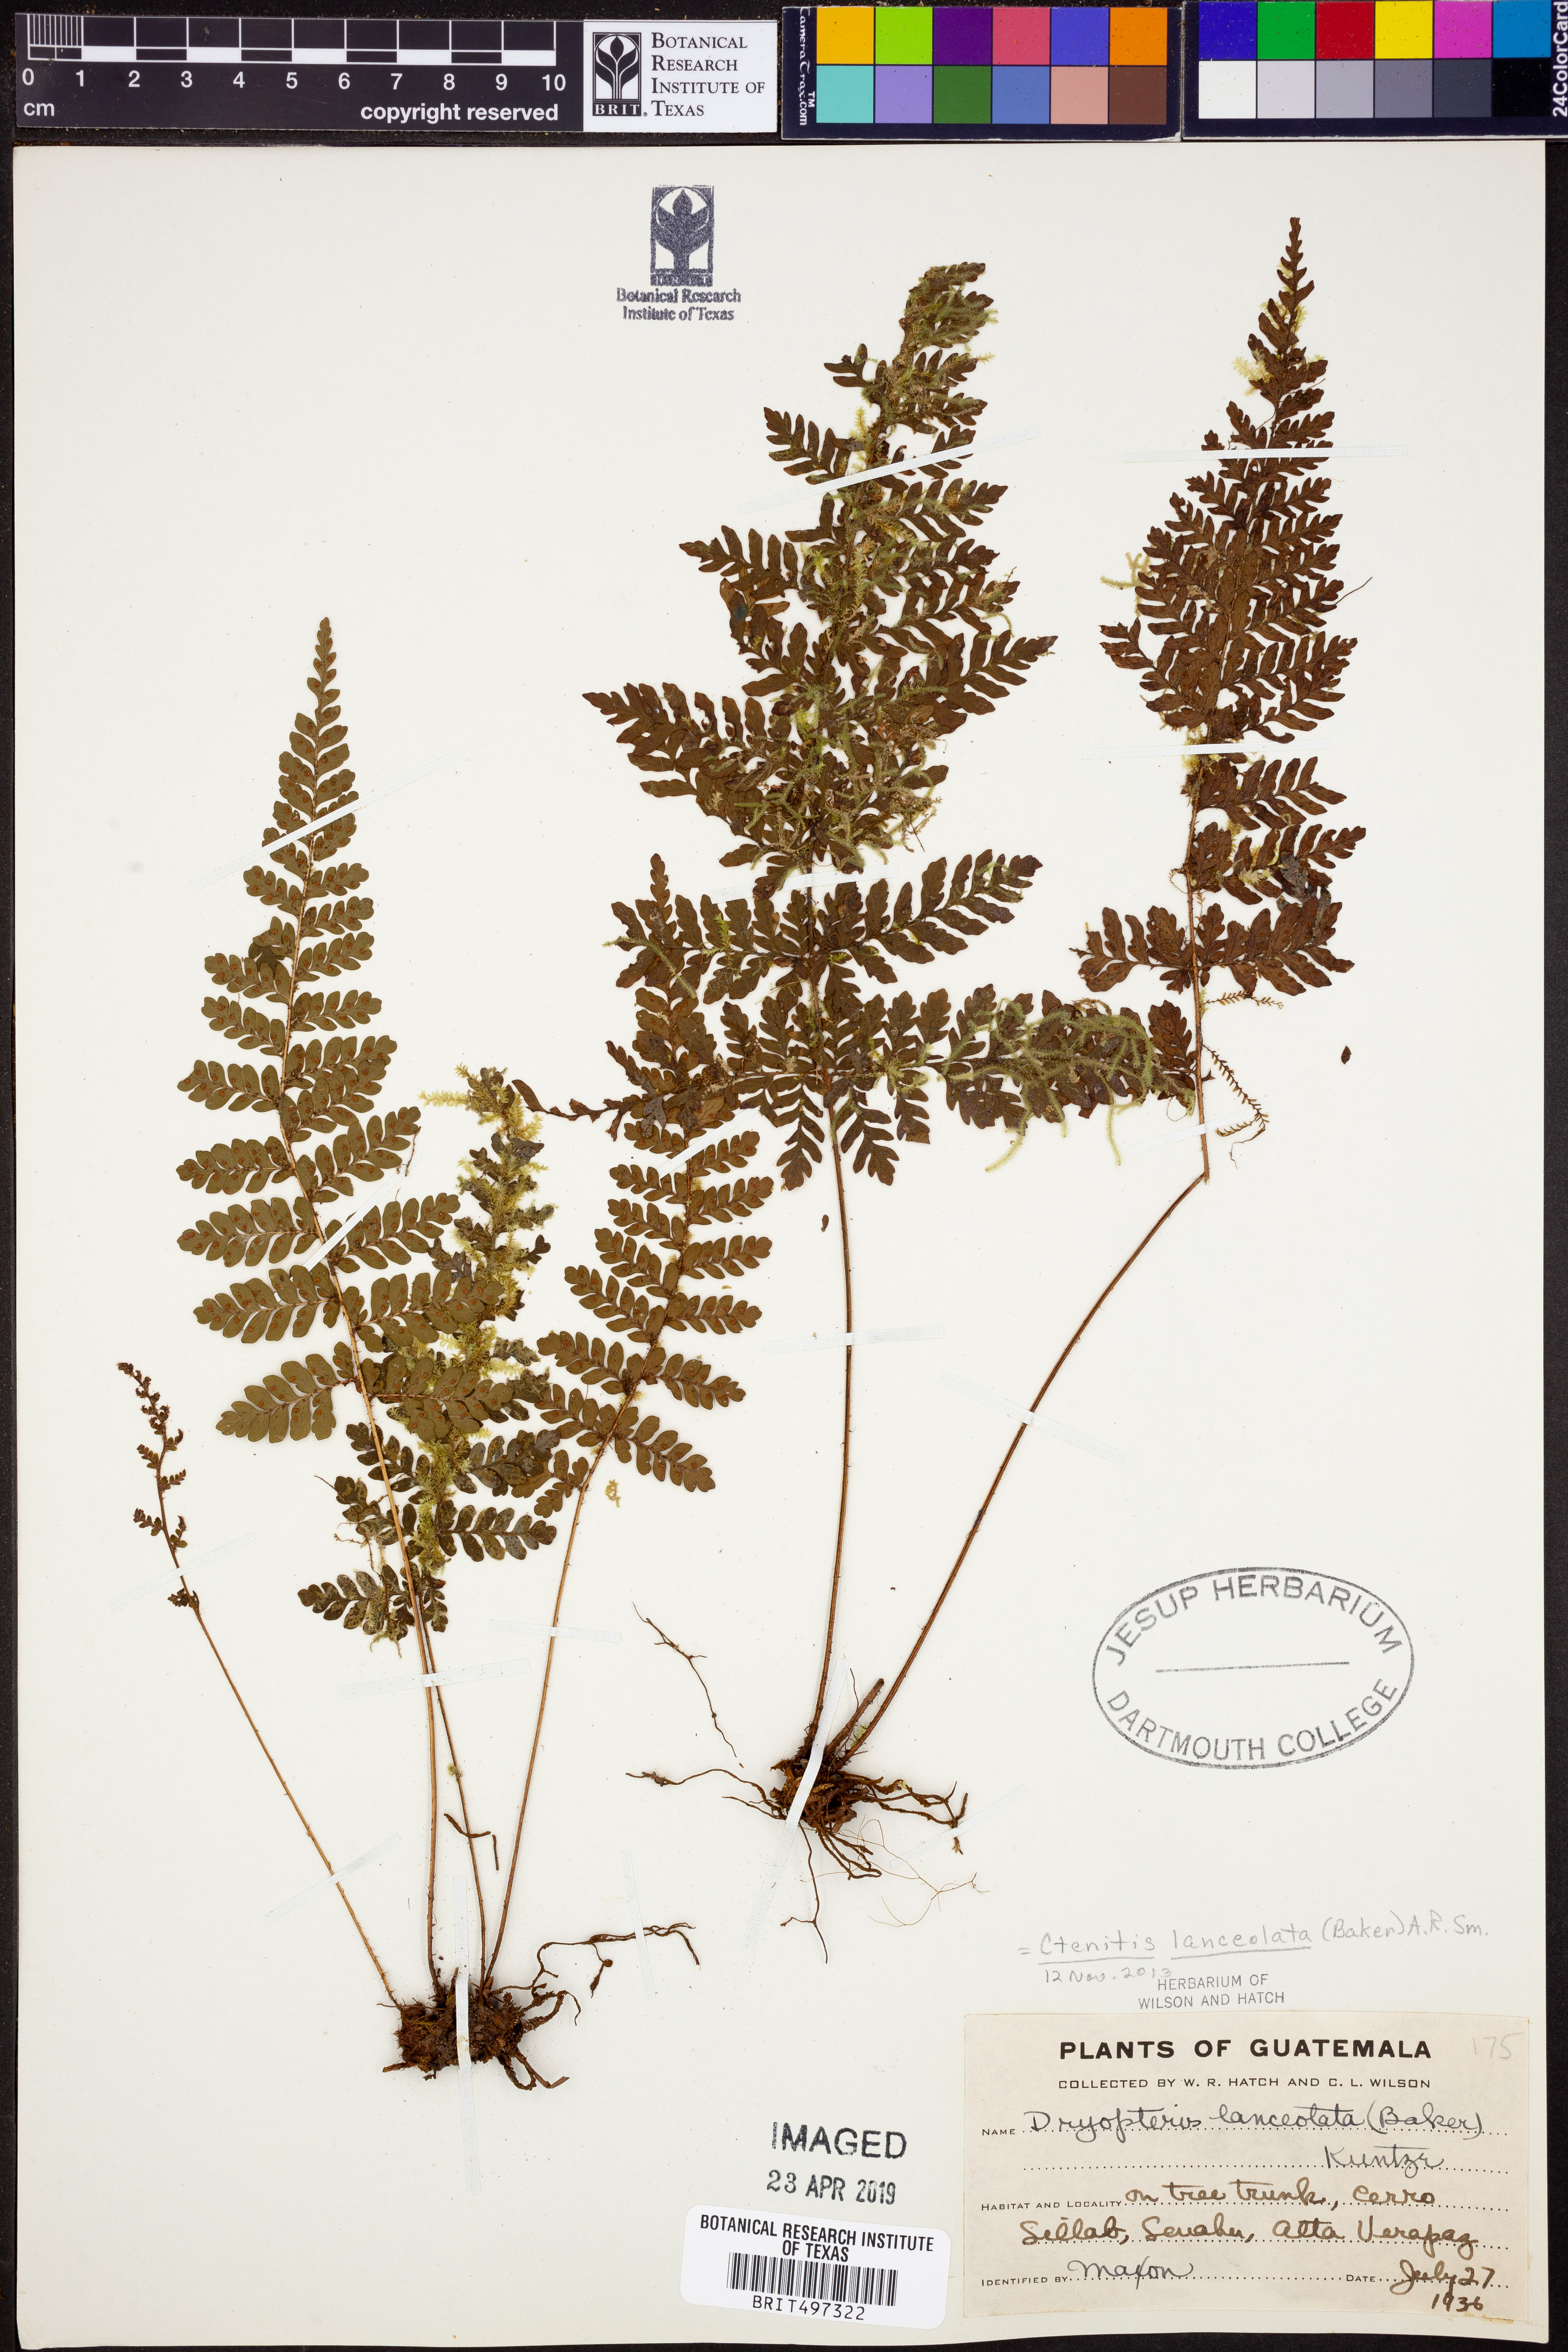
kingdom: Plantae
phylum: Tracheophyta
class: Polypodiopsida
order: Polypodiales
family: Dryopteridaceae
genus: Ctenitis
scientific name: Ctenitis lanceolata
